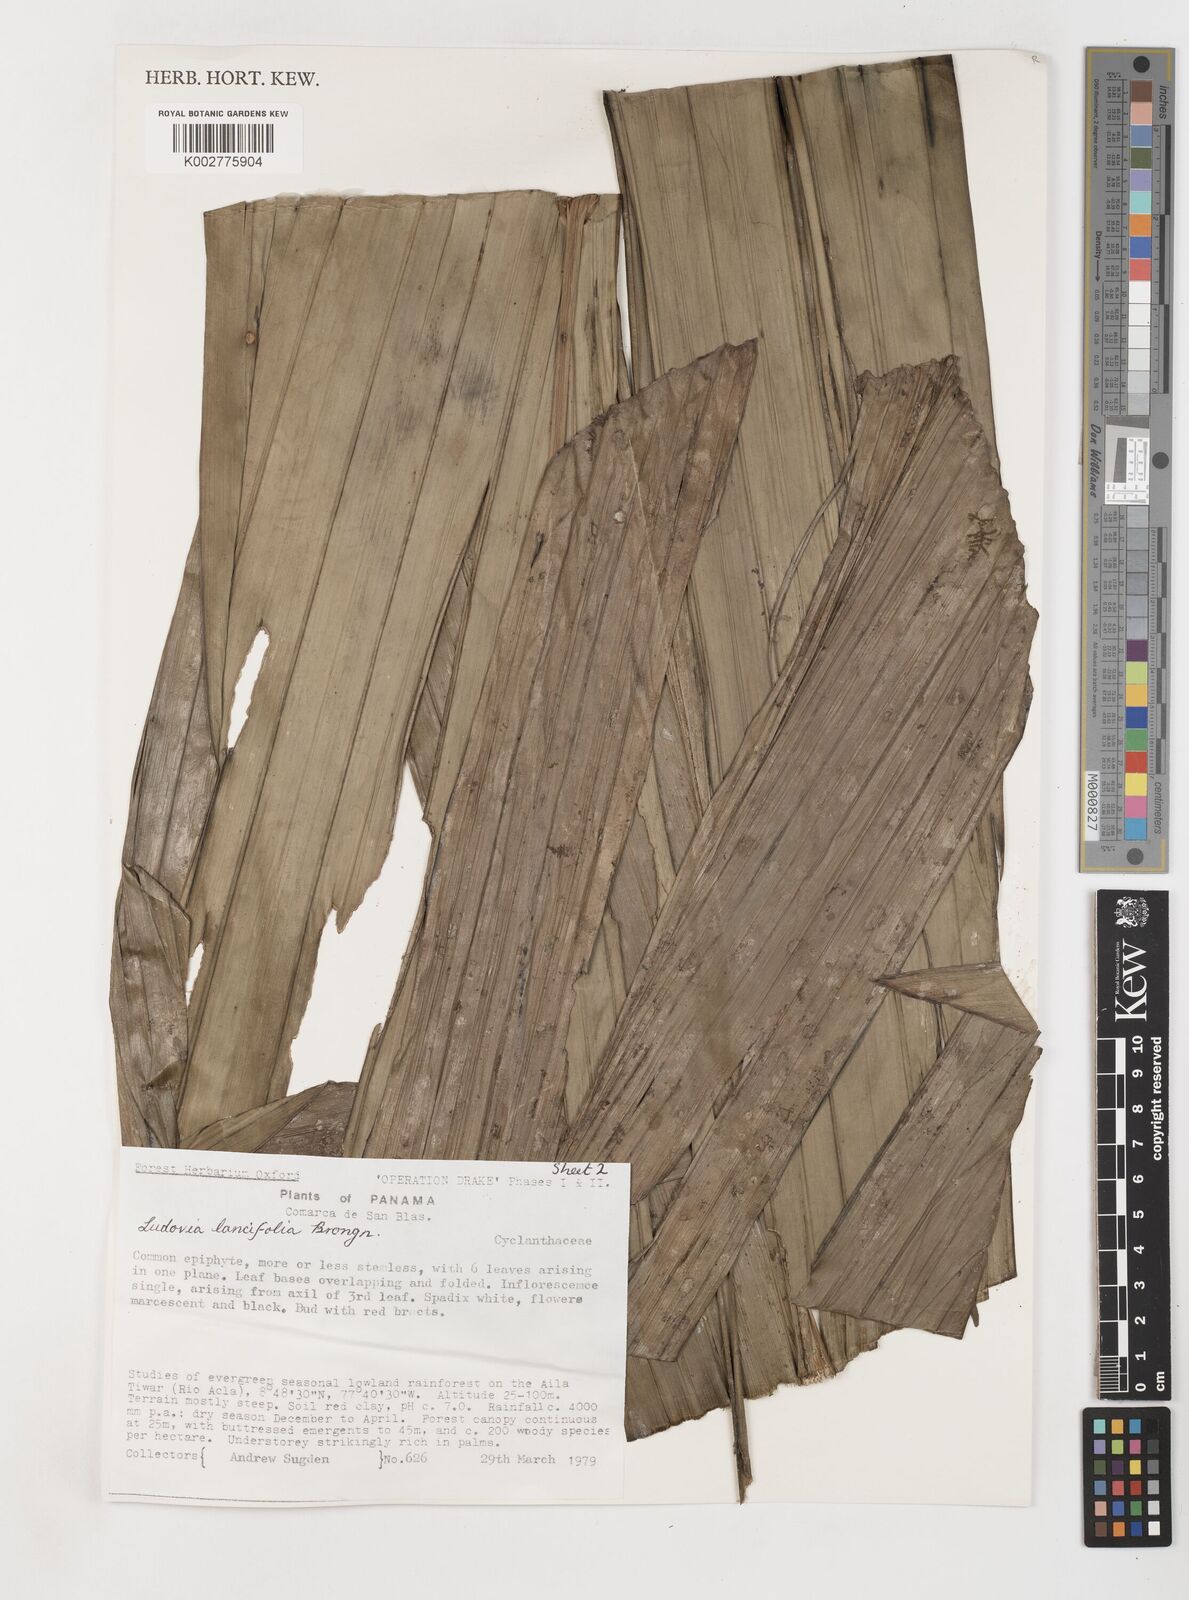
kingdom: Plantae
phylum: Tracheophyta
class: Liliopsida
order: Pandanales
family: Cyclanthaceae
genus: Ludovia
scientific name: Ludovia lancifolia
